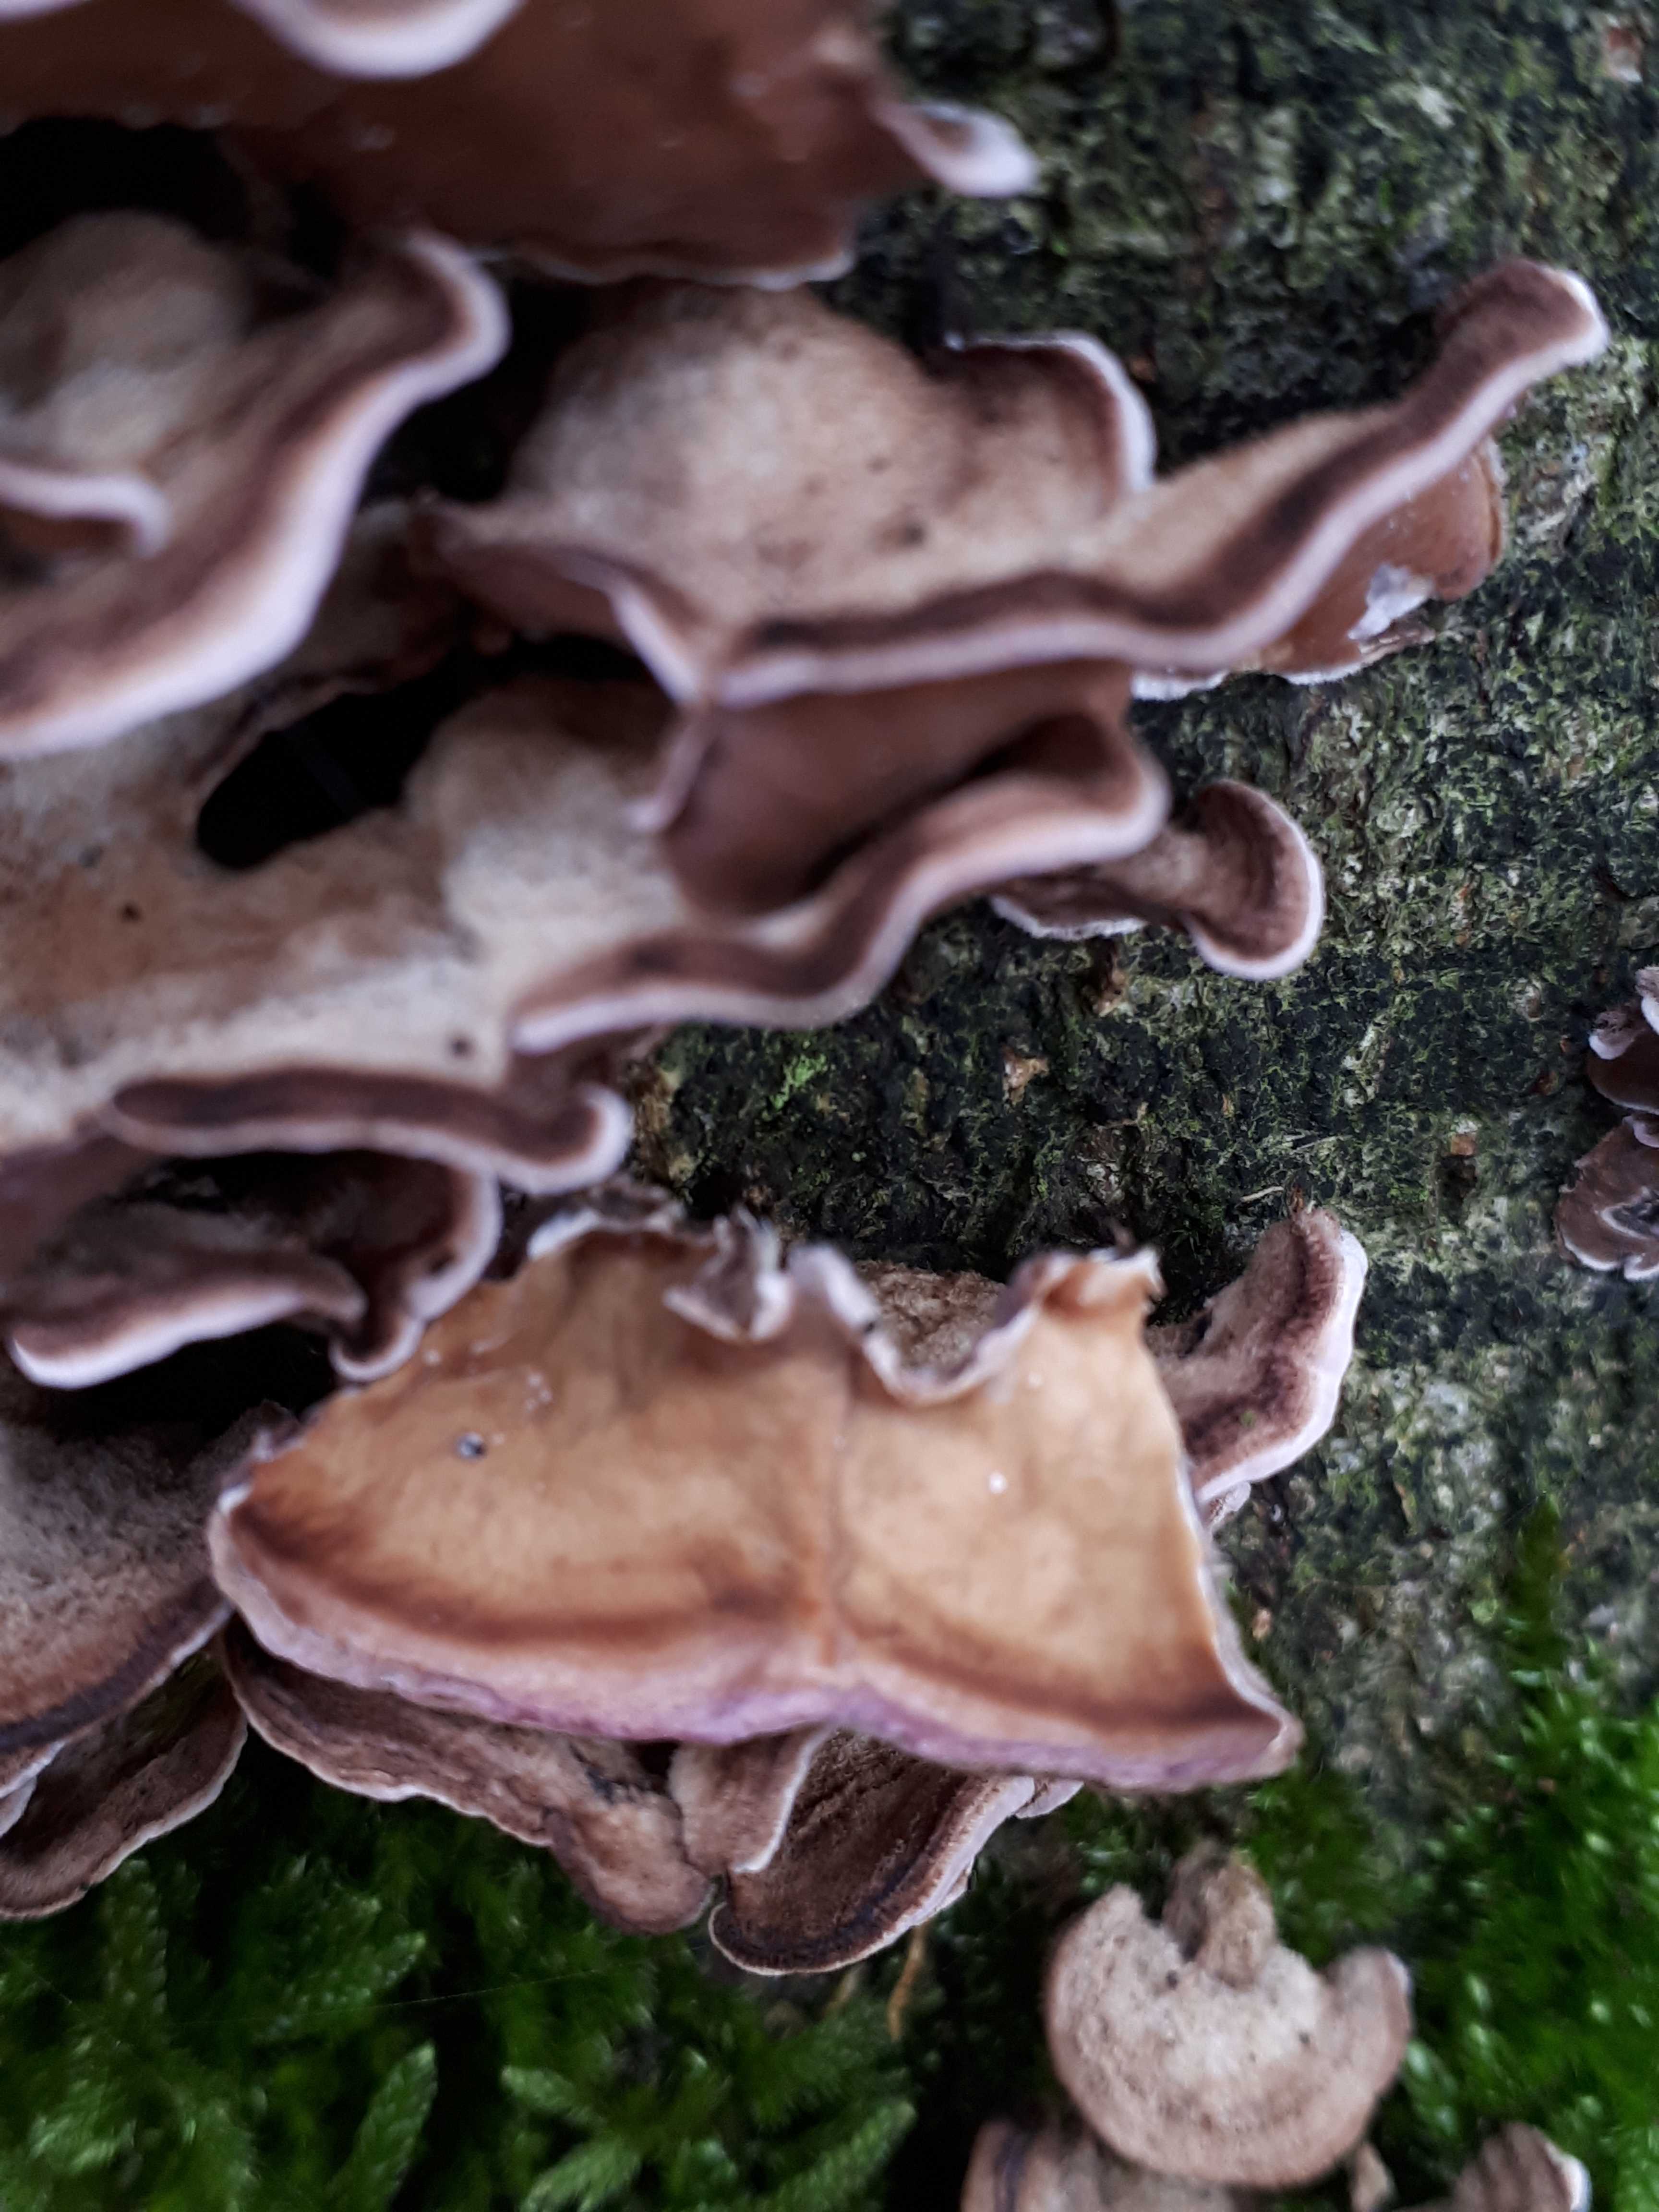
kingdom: Fungi
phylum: Basidiomycota
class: Agaricomycetes
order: Agaricales
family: Cyphellaceae
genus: Chondrostereum
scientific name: Chondrostereum purpureum
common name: purpurlædersvamp
